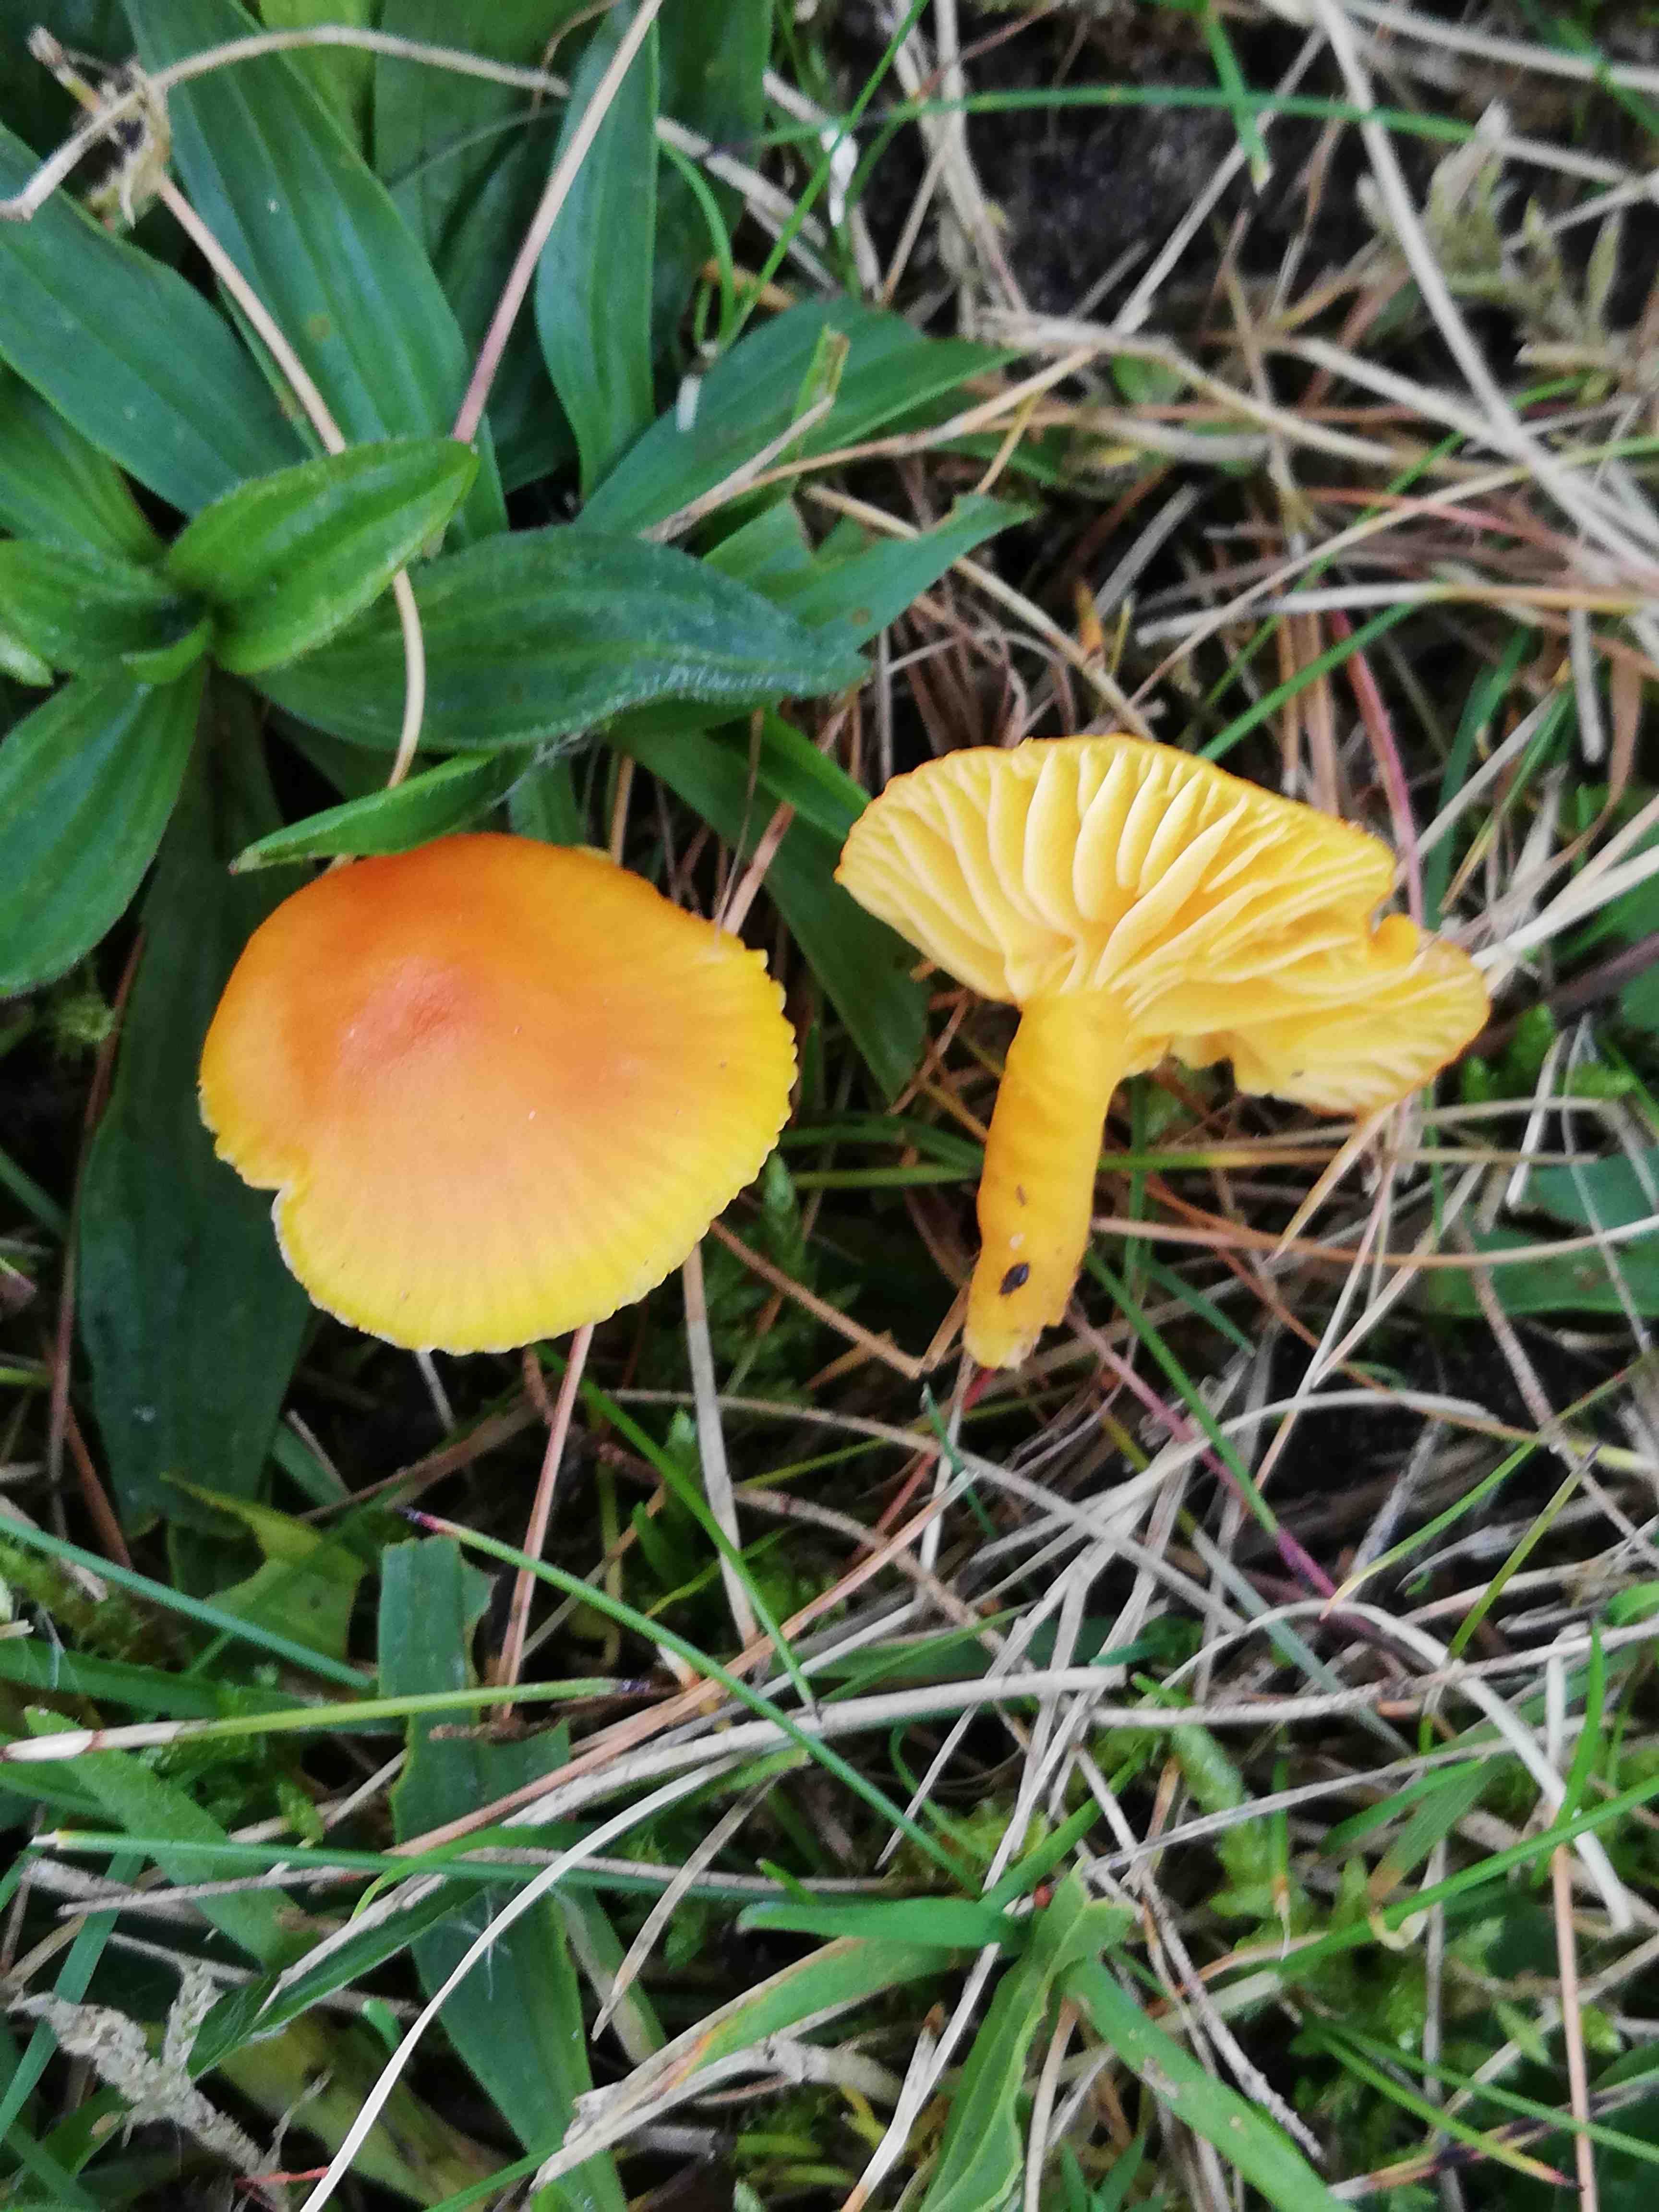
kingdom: Fungi
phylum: Basidiomycota
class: Agaricomycetes
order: Agaricales
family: Hygrophoraceae
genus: Hygrocybe
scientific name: Hygrocybe ceracea
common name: voksgul vokshat
